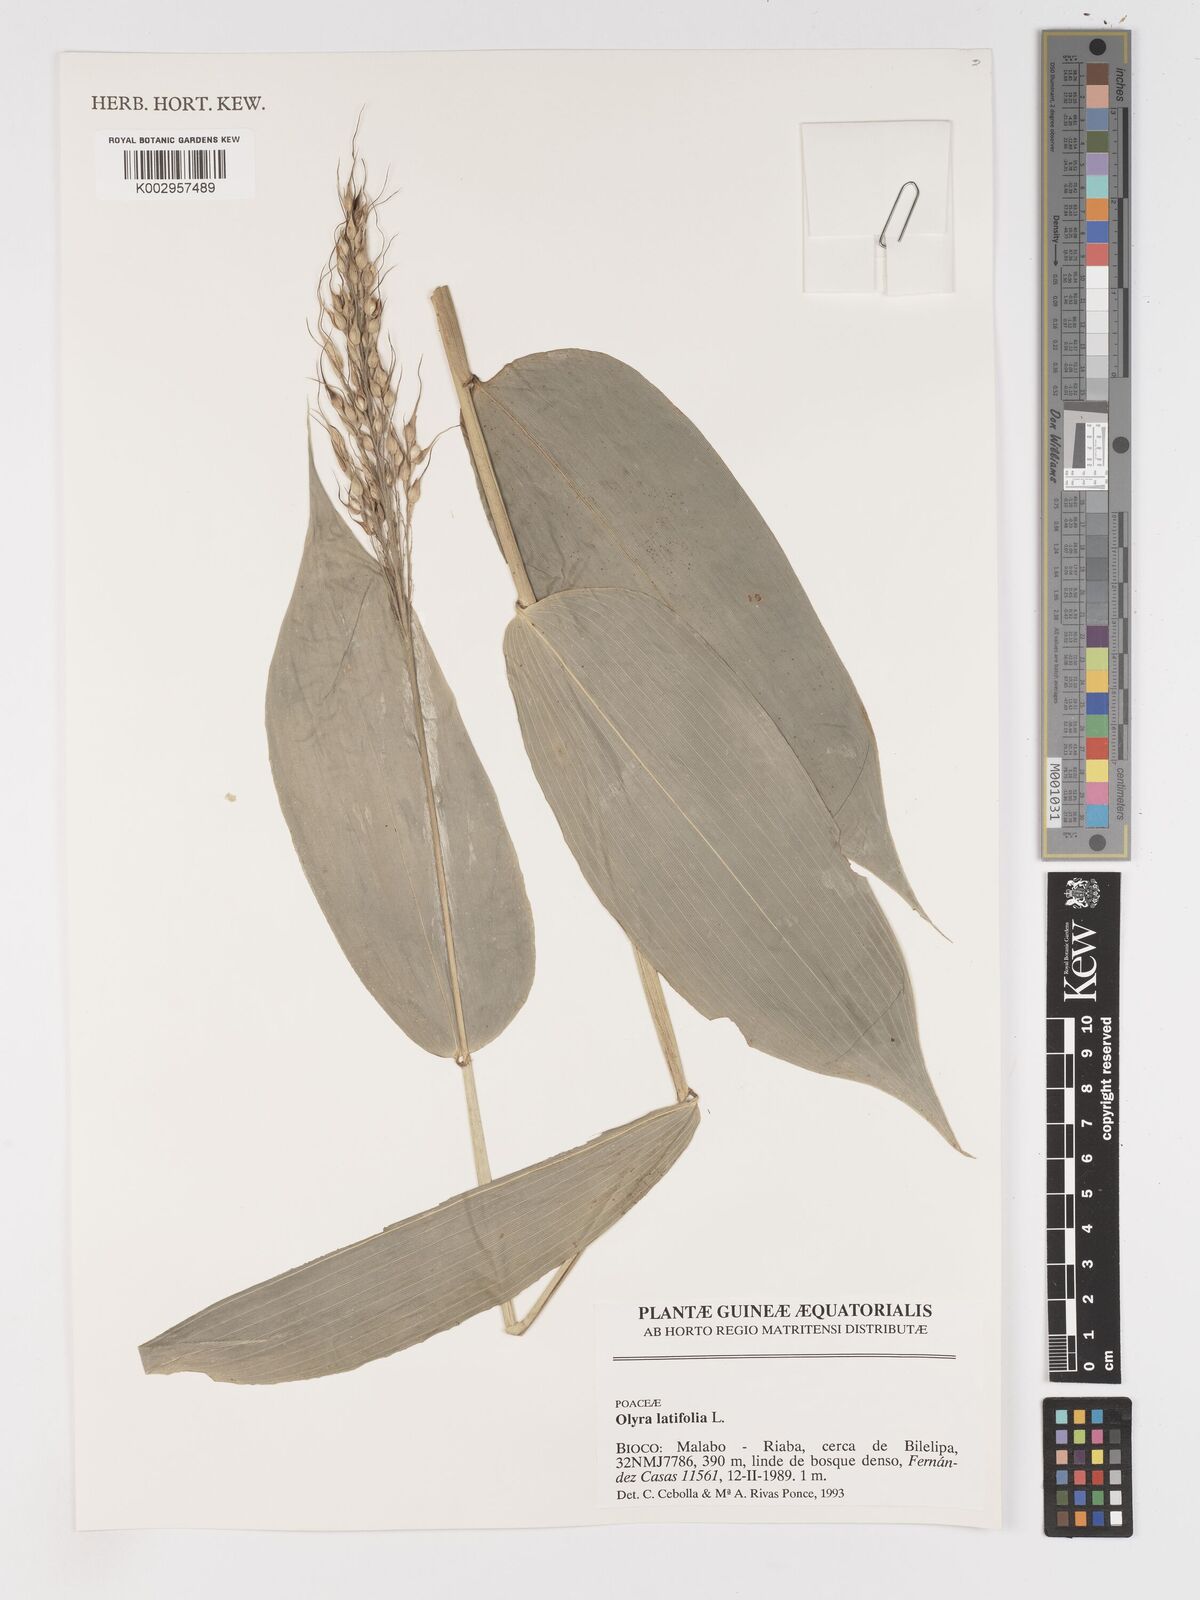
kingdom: Plantae
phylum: Tracheophyta
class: Liliopsida
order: Poales
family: Poaceae
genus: Olyra
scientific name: Olyra latifolia
